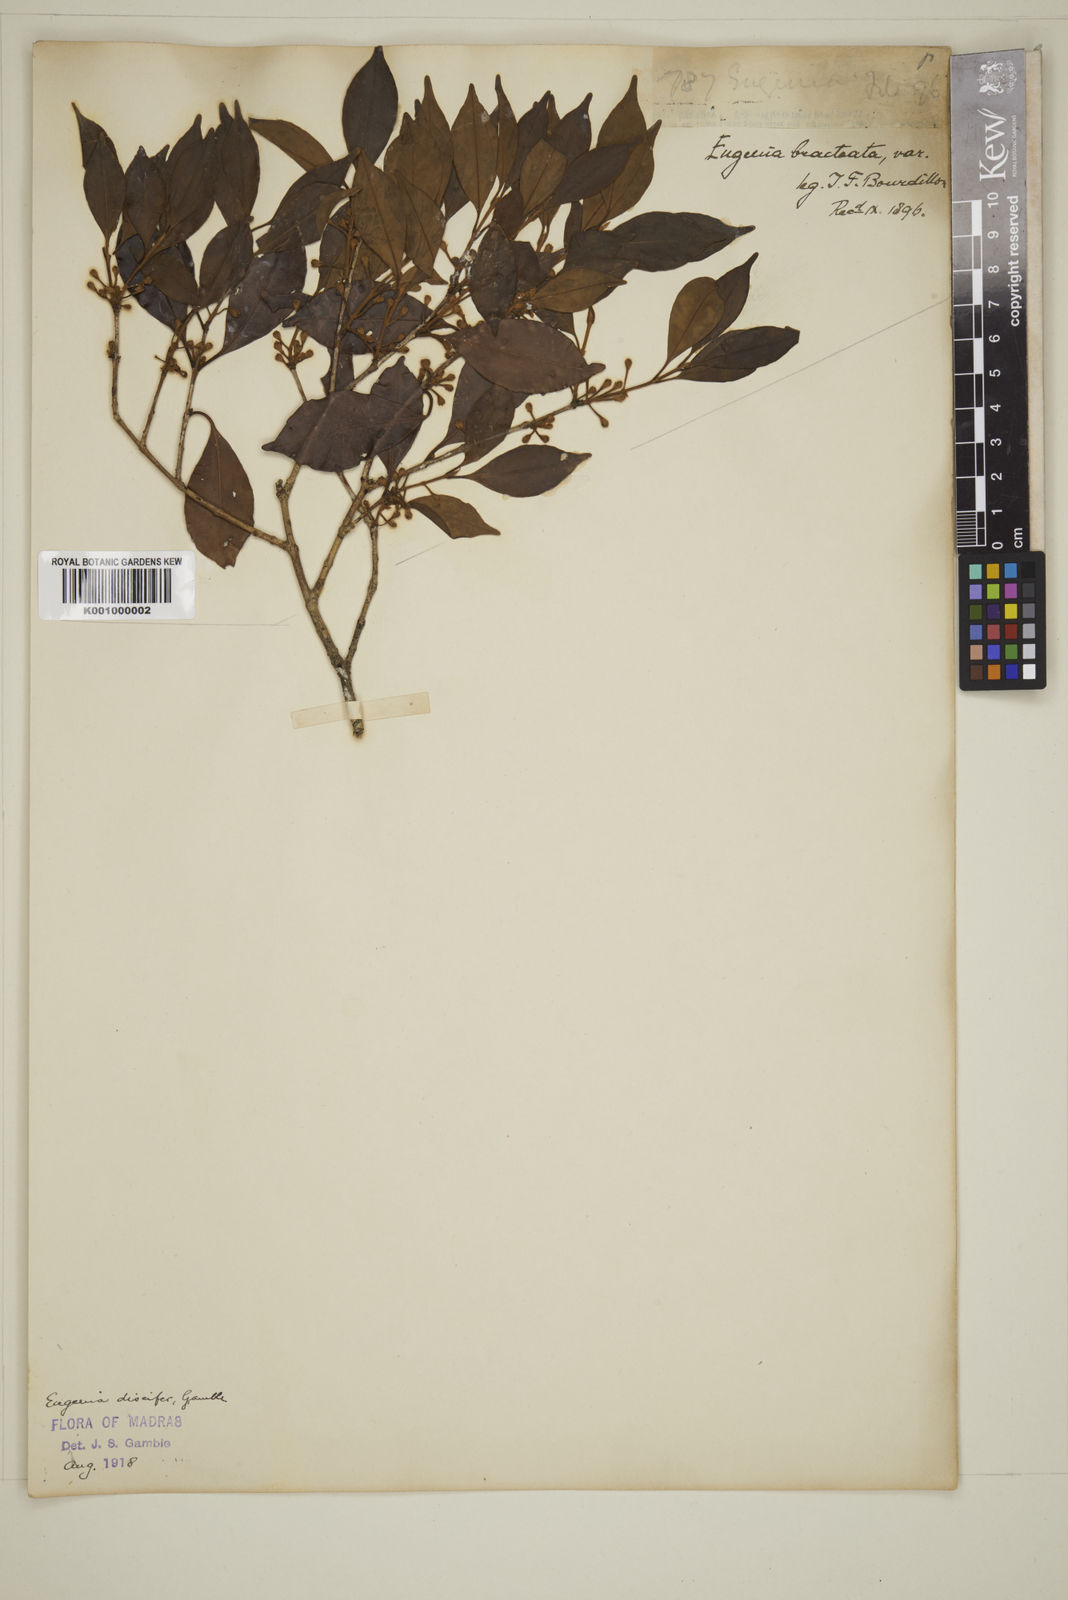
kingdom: Plantae
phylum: Tracheophyta
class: Magnoliopsida
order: Myrtales
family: Myrtaceae
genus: Eugenia
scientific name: Eugenia discifera
